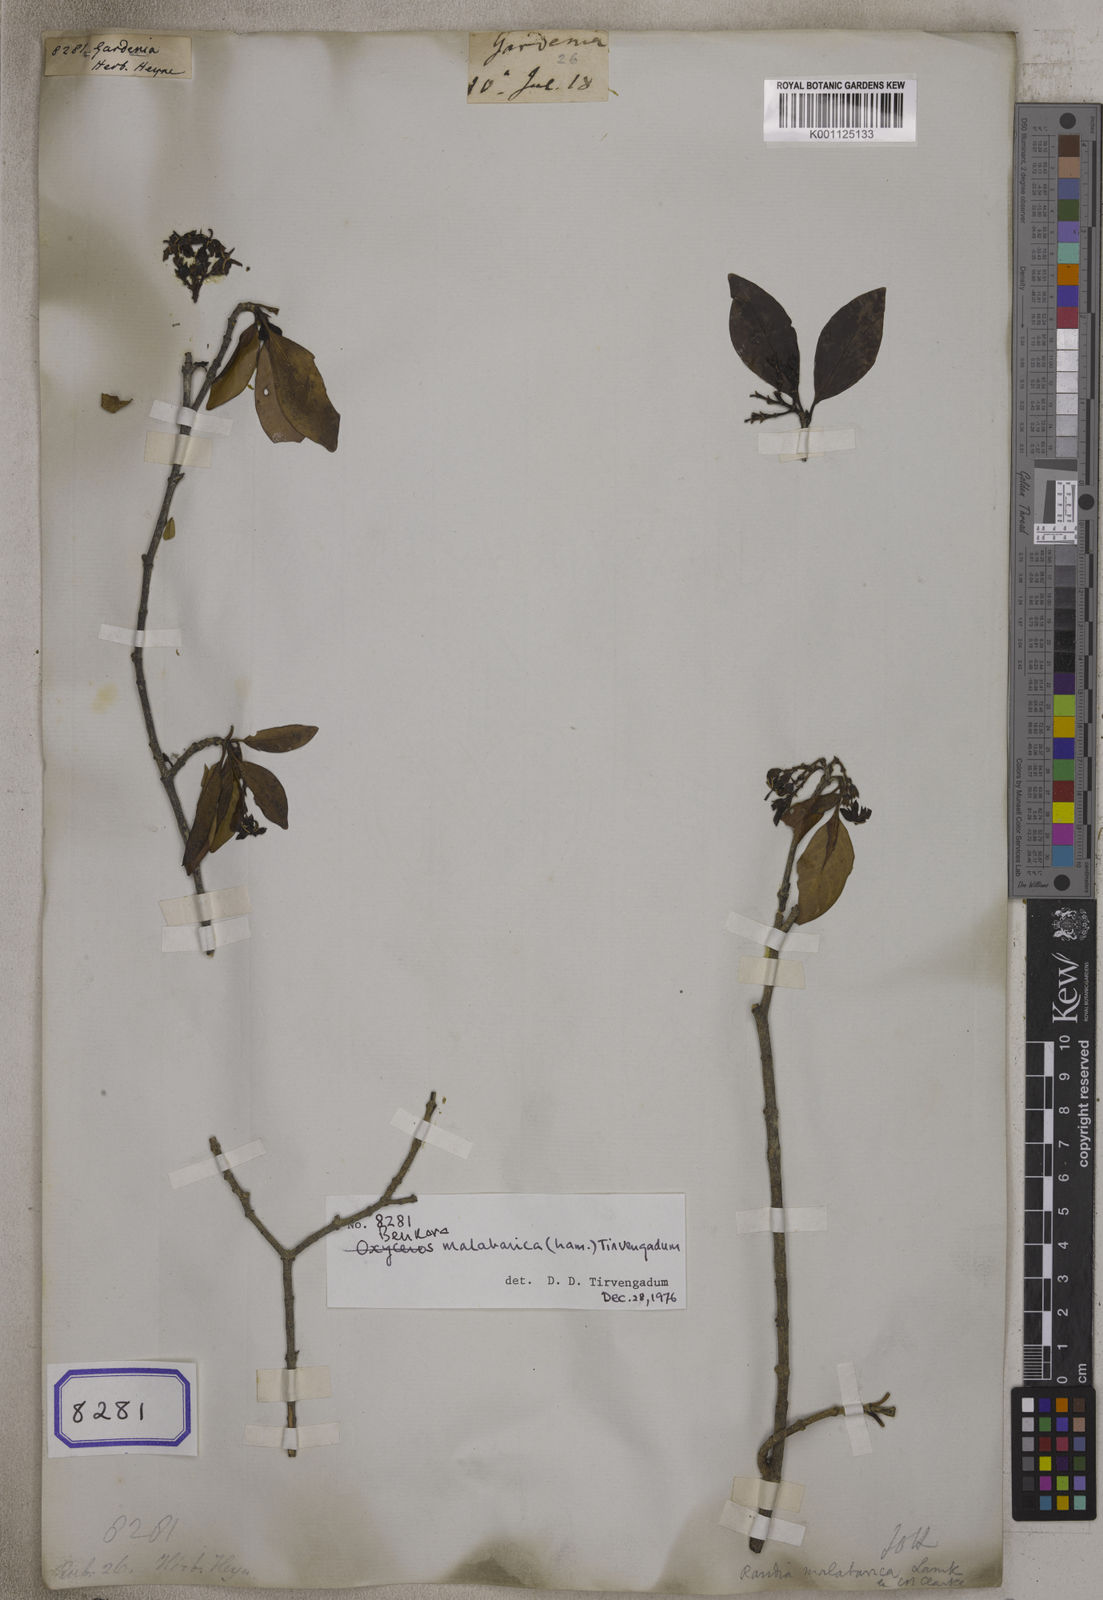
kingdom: Plantae
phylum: Tracheophyta
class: Magnoliopsida
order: Gentianales
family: Rubiaceae
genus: Gardenia
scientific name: Gardenia
